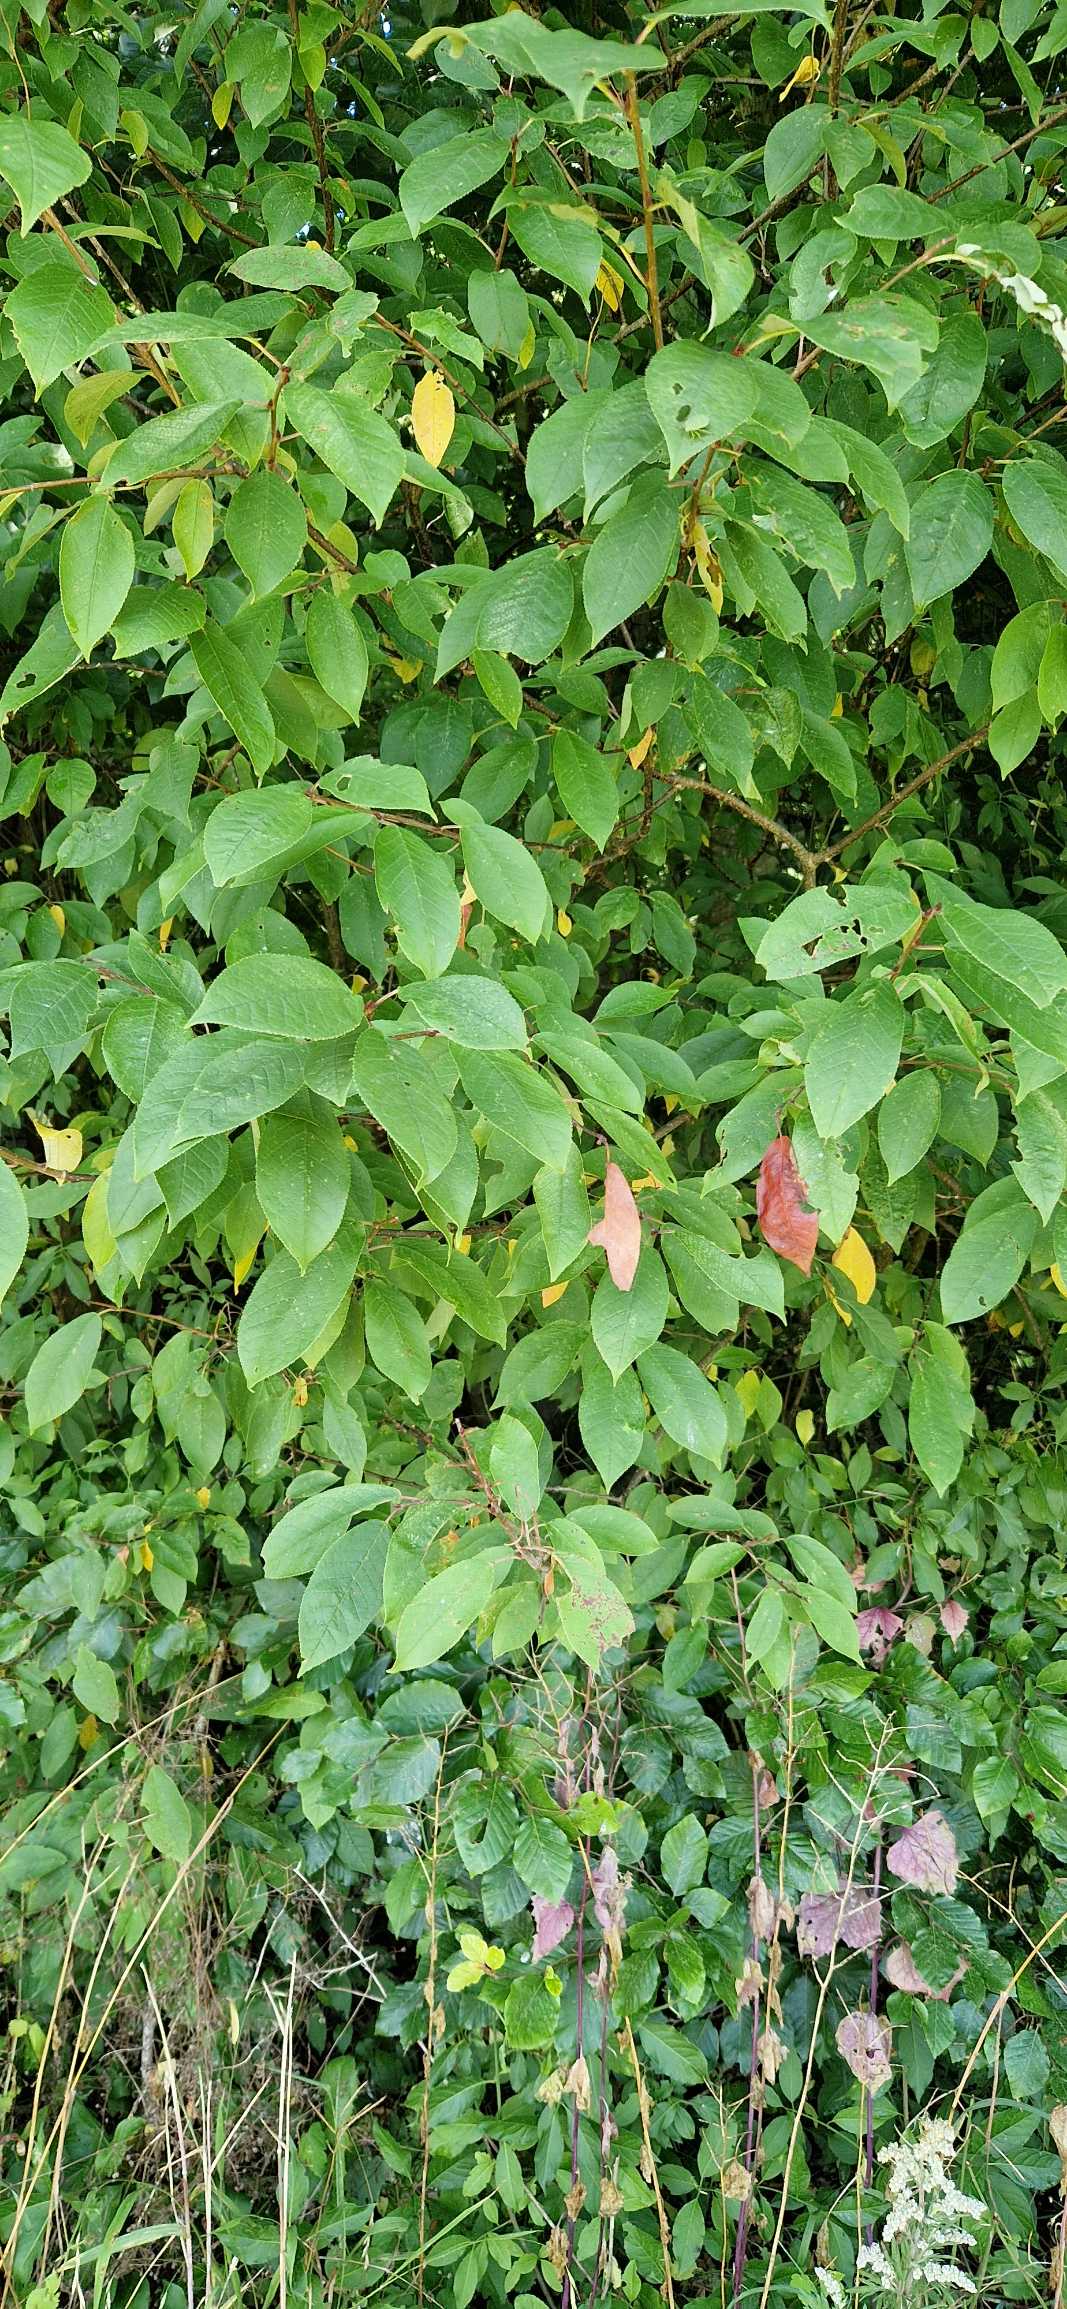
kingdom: Plantae
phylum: Tracheophyta
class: Magnoliopsida
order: Rosales
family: Rosaceae
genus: Prunus
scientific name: Prunus padus
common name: Almindelig hæg
